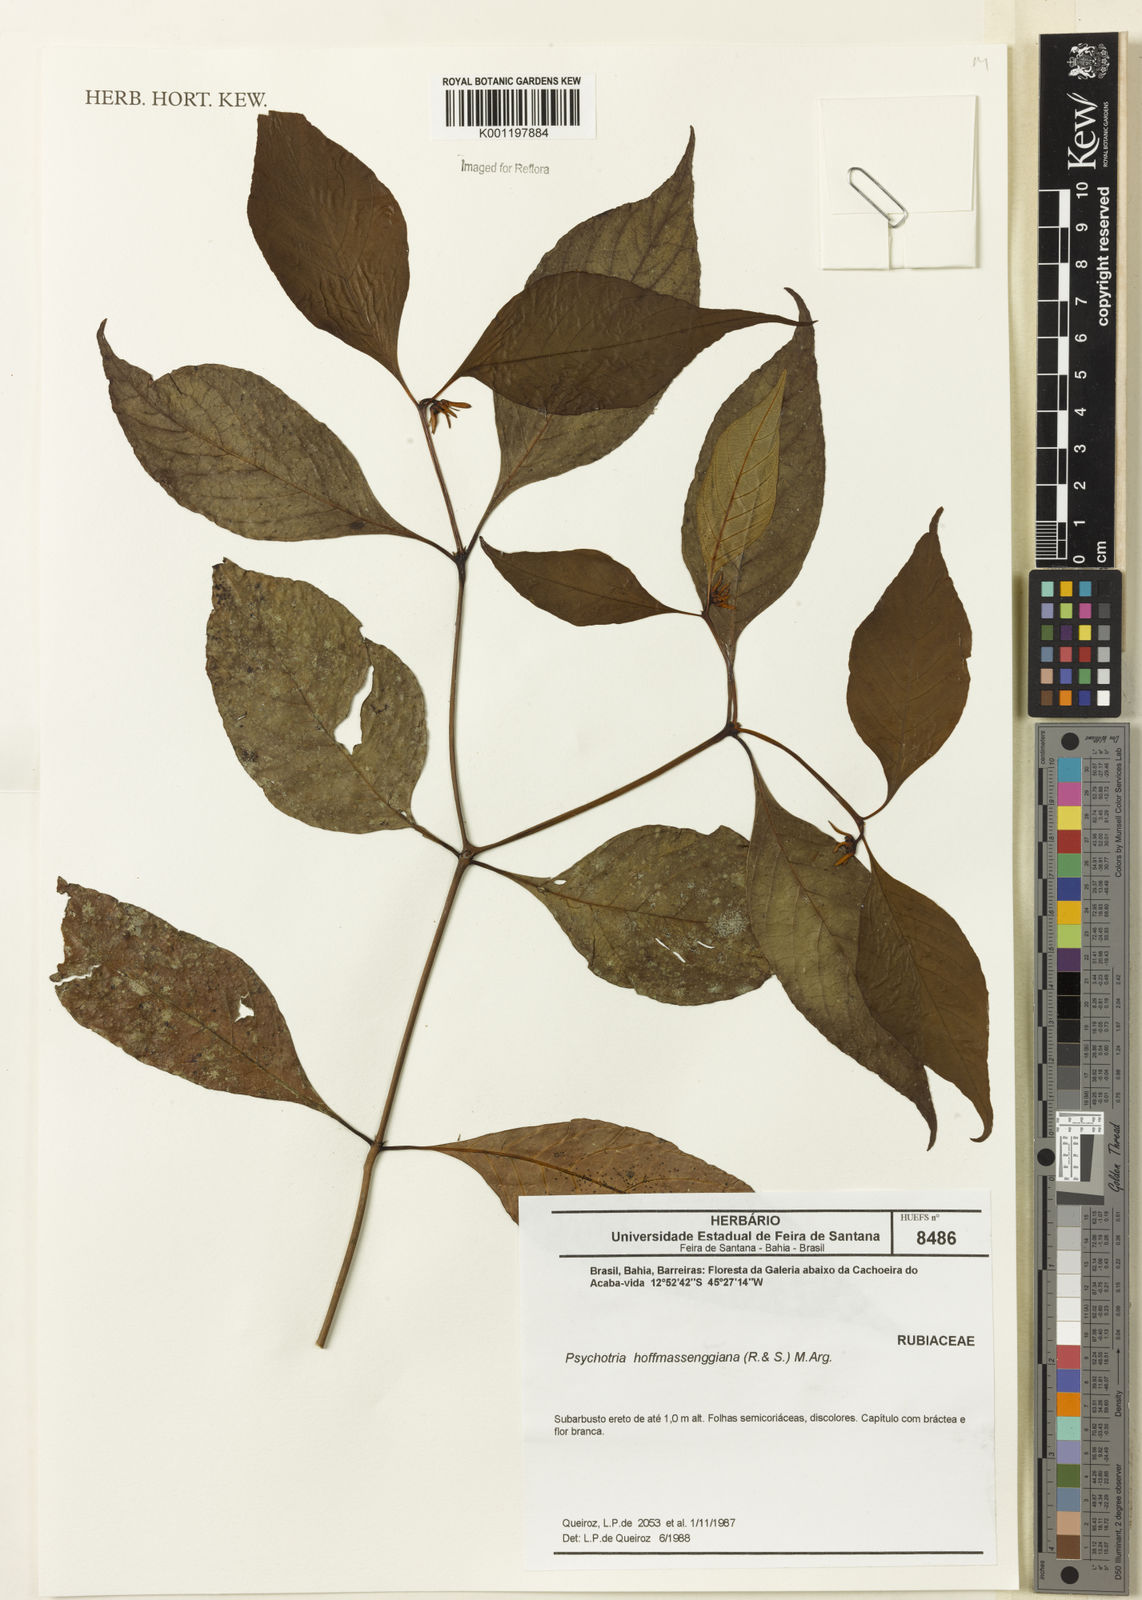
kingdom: Plantae
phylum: Tracheophyta
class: Magnoliopsida
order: Gentianales
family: Rubiaceae
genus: Psychotria
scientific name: Psychotria
